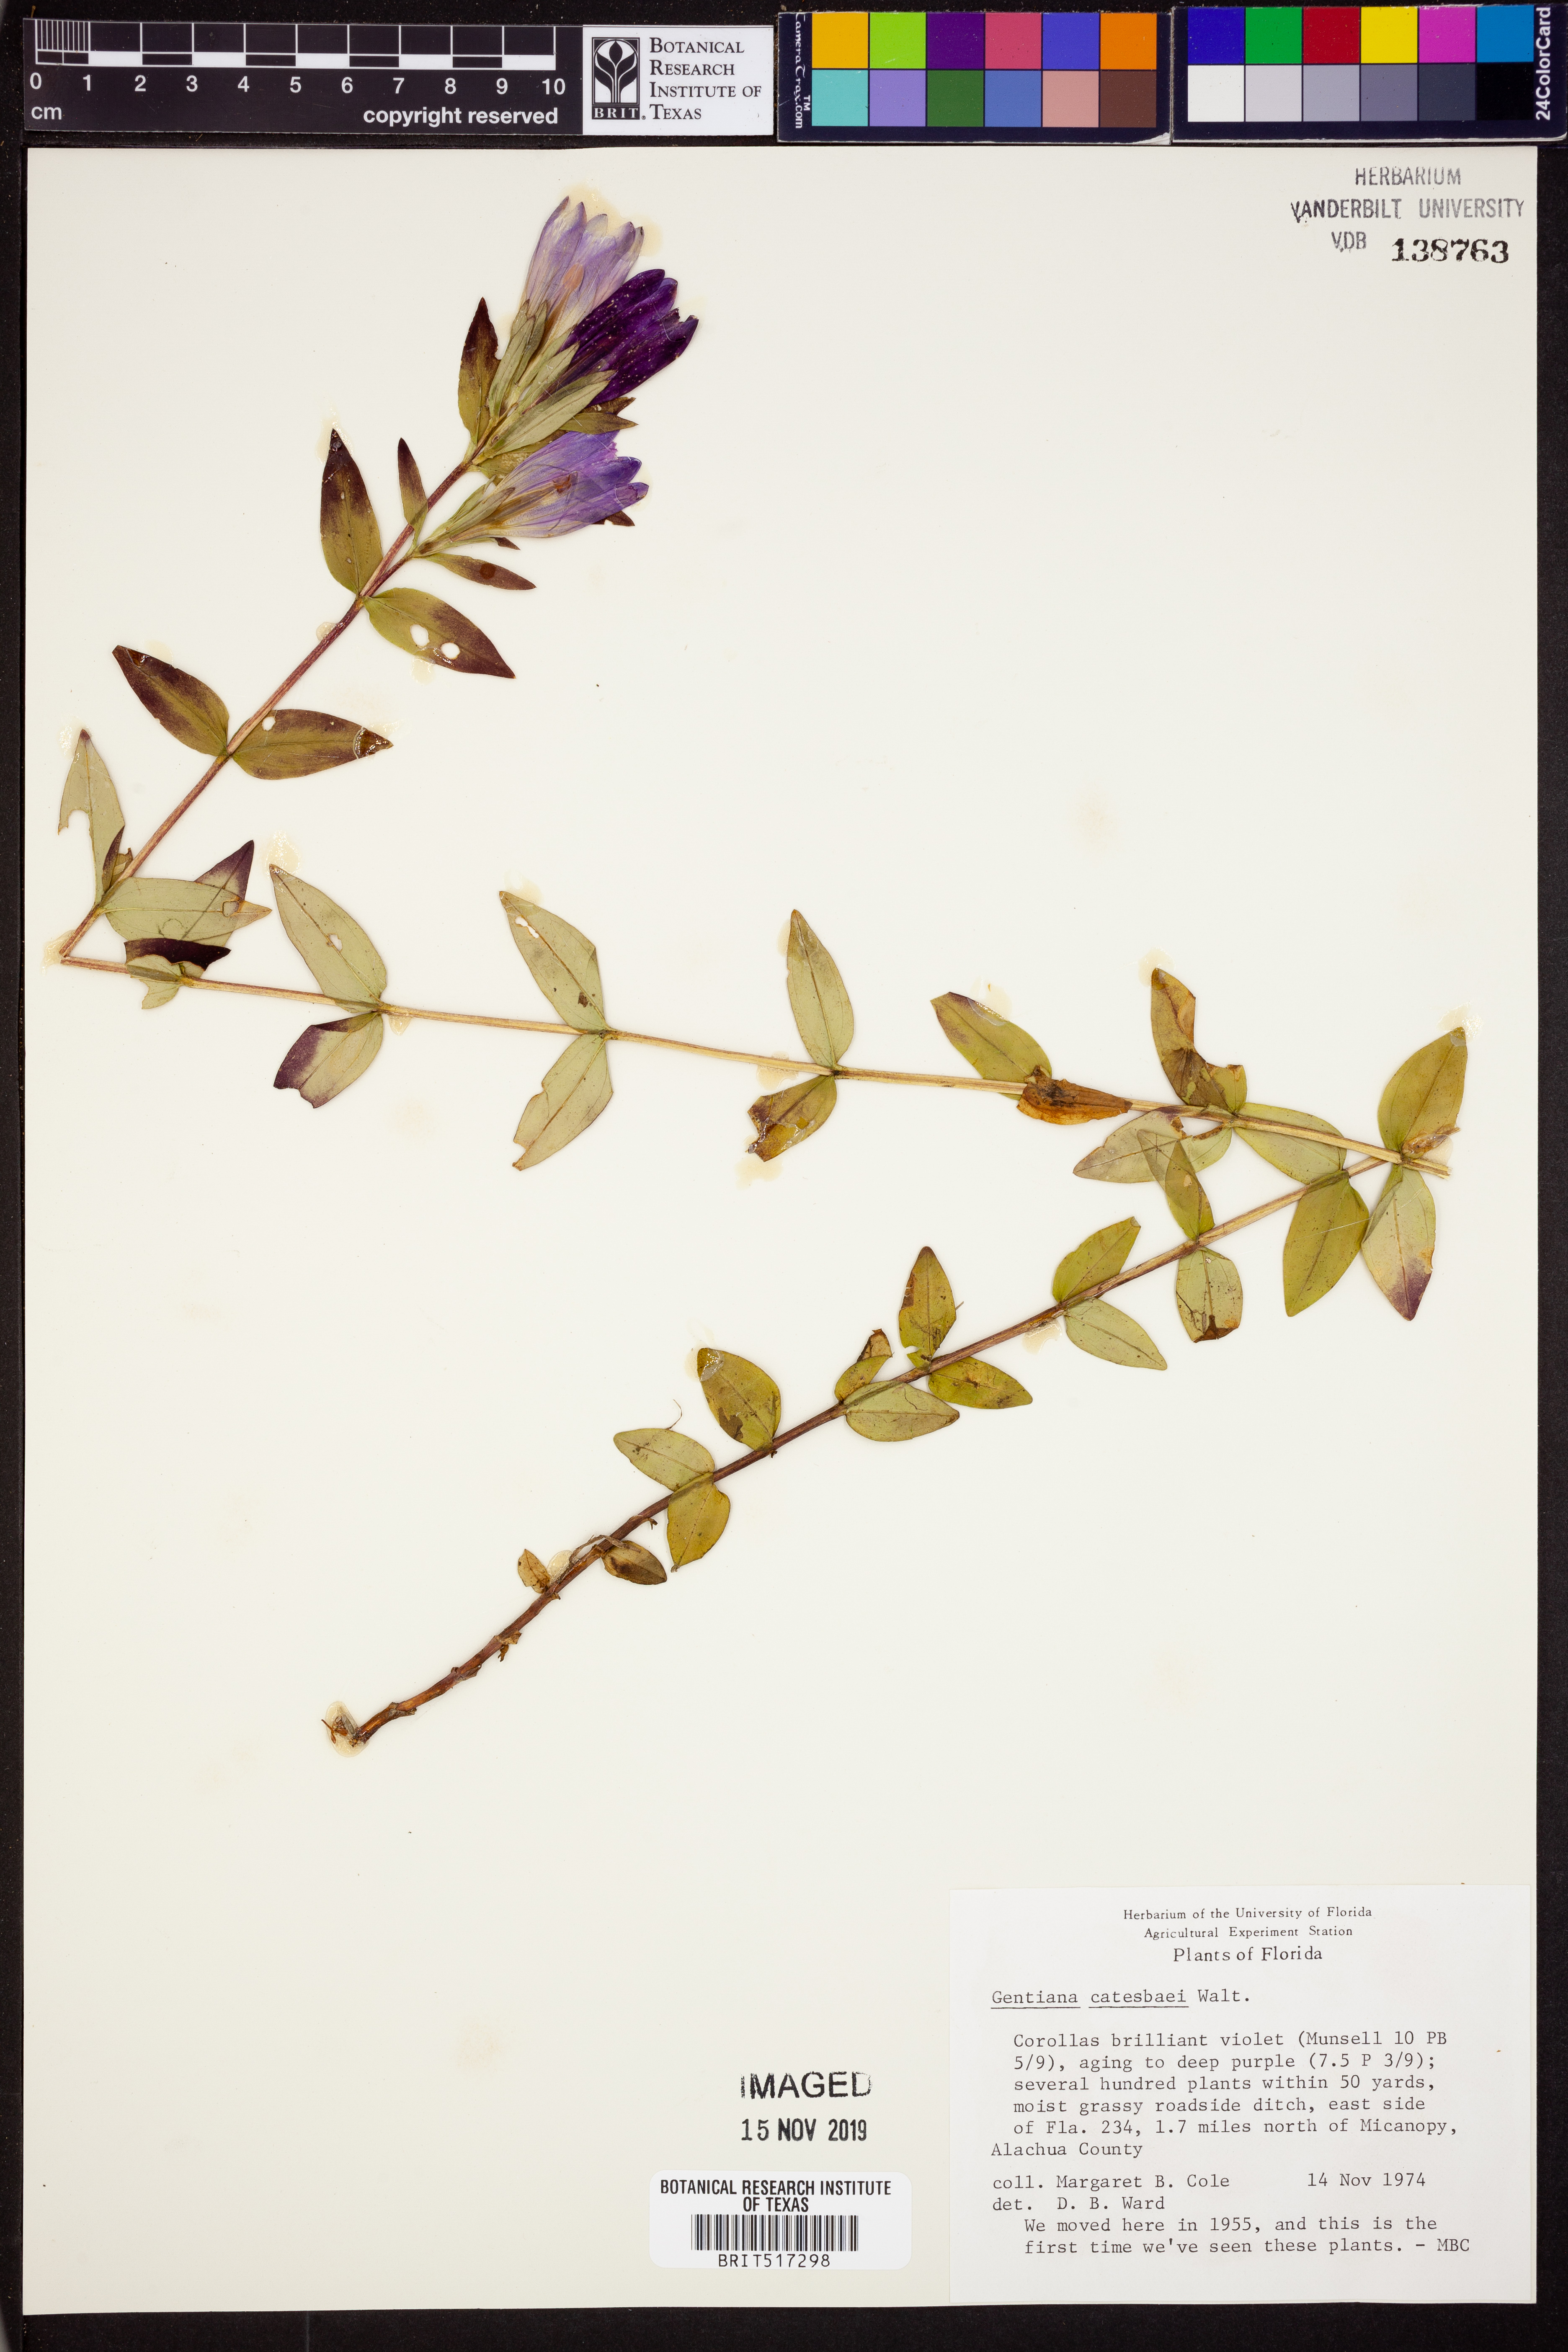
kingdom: Plantae
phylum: Tracheophyta
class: Magnoliopsida
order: Gentianales
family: Gentianaceae
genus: Gentiana
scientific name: Gentiana catesbaei
